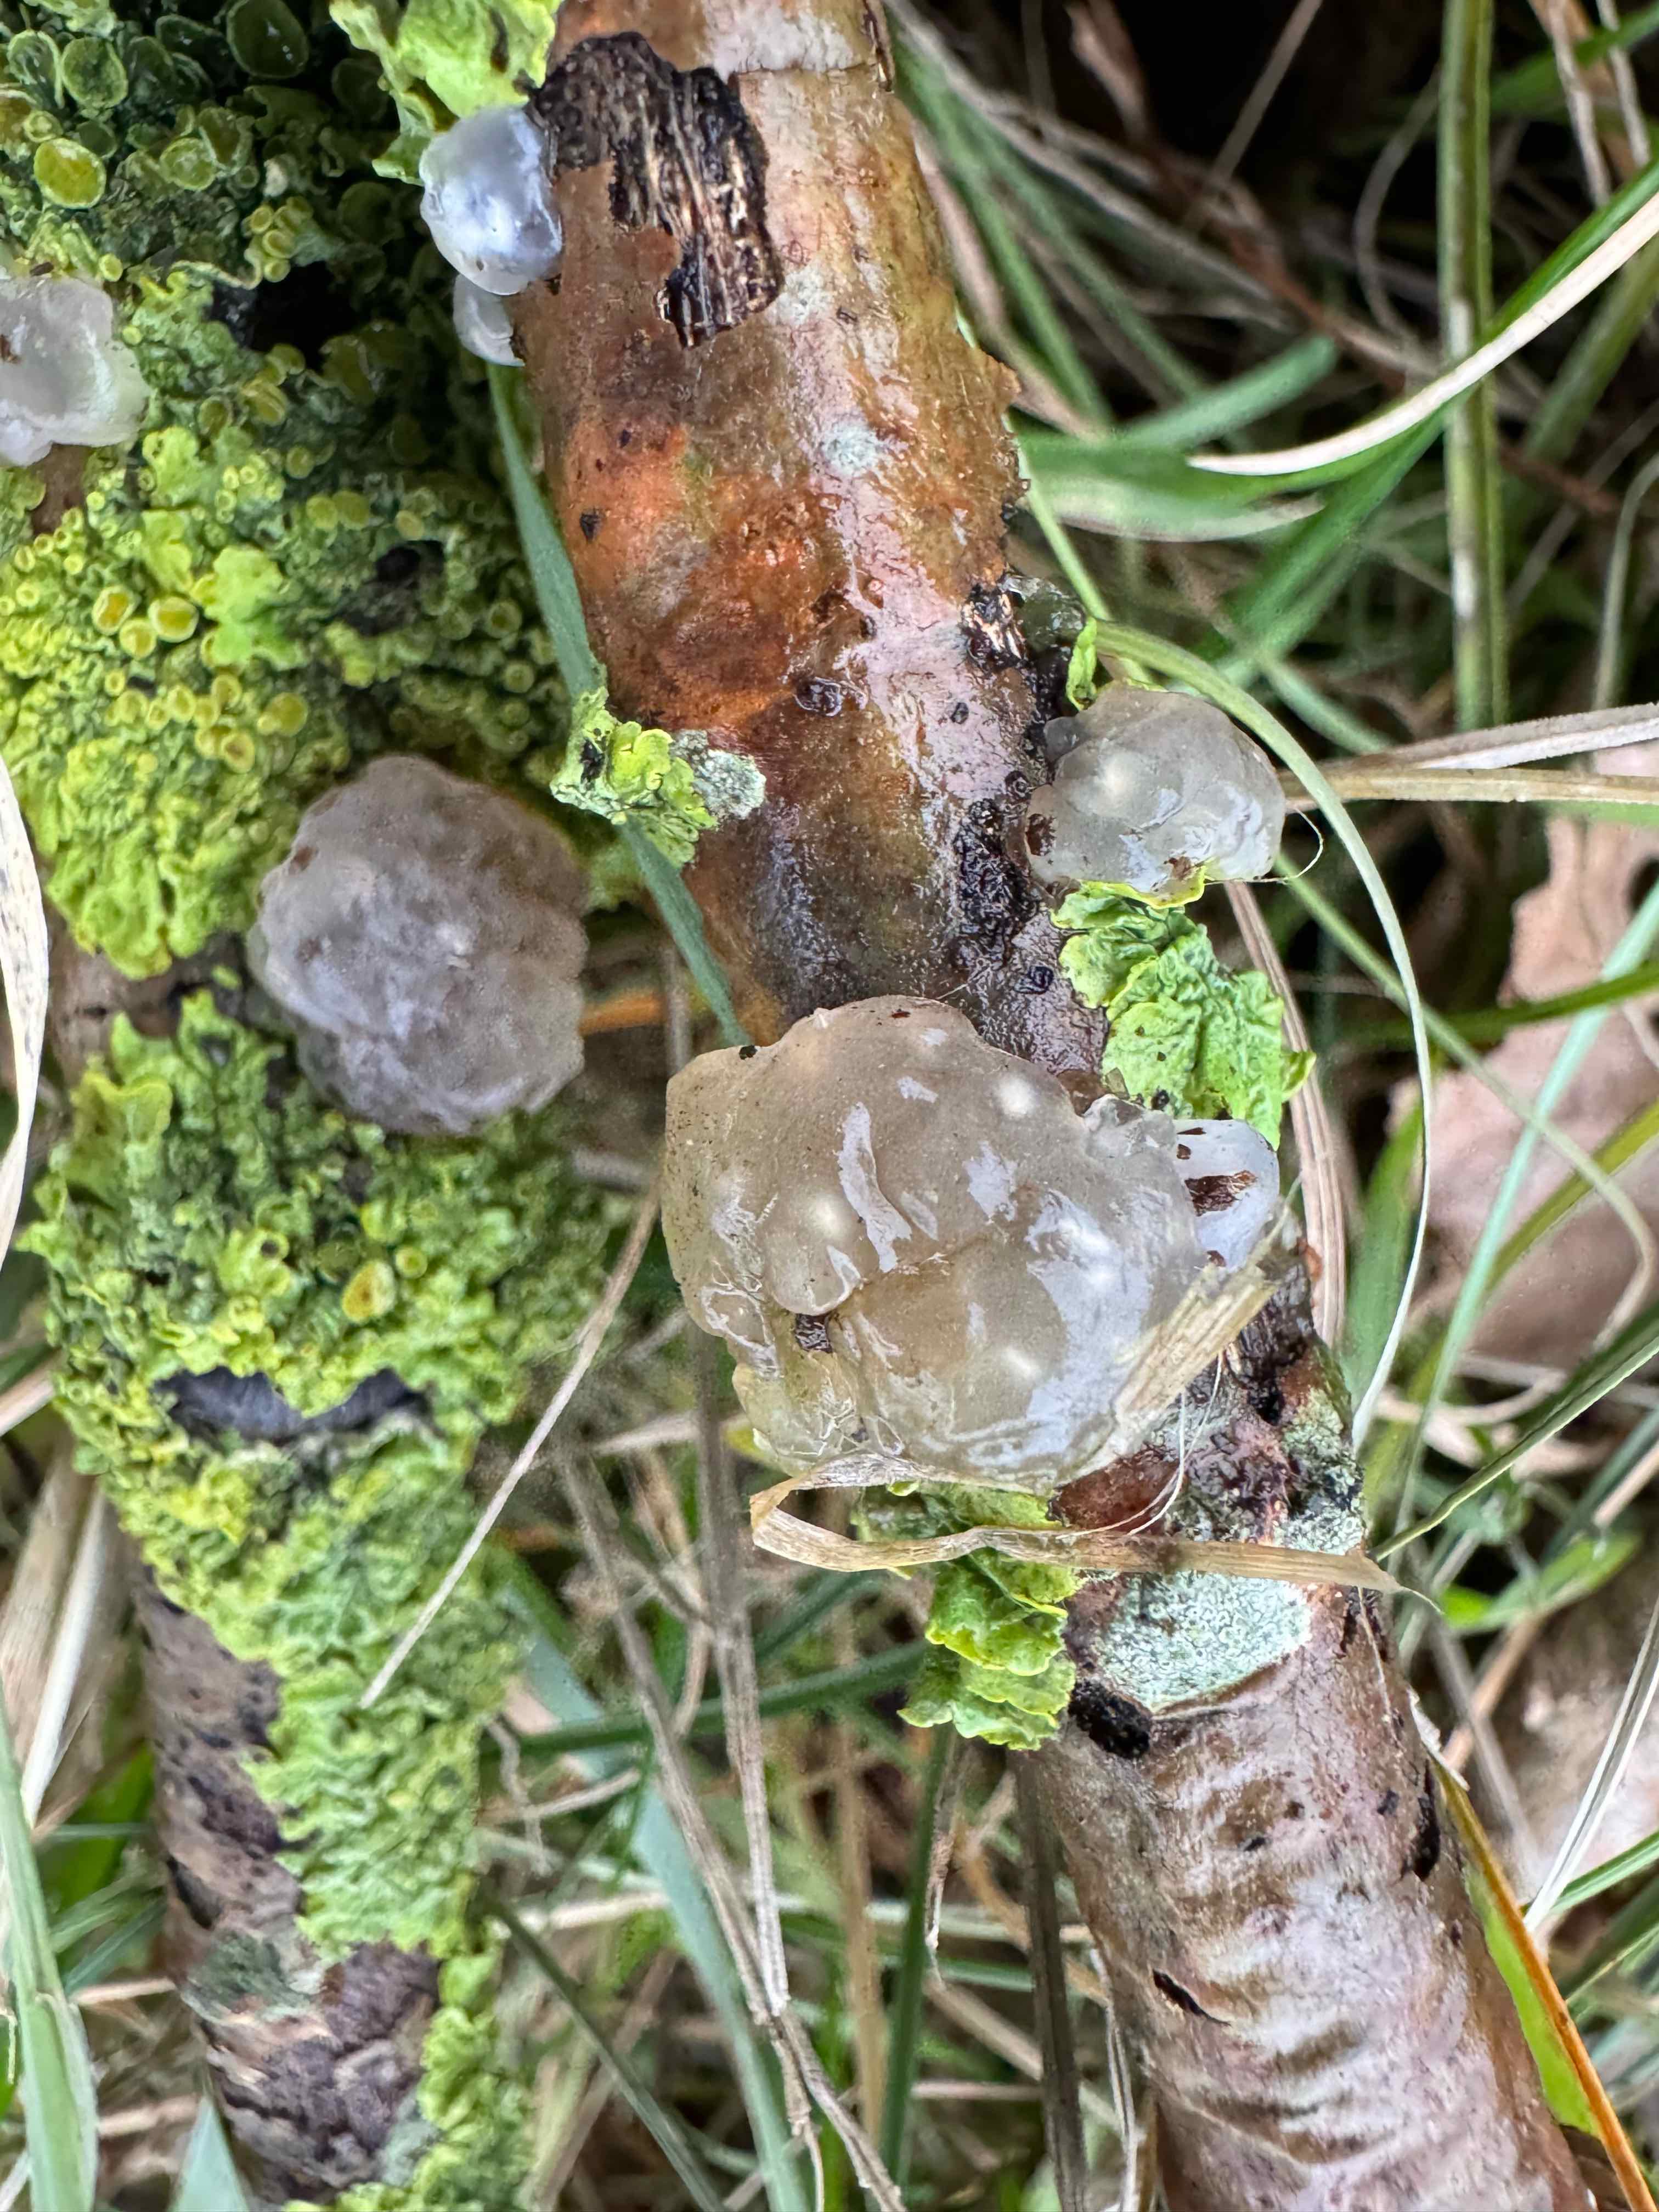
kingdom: Fungi
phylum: Basidiomycota
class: Agaricomycetes
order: Auriculariales
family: Hyaloriaceae
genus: Myxarium
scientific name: Myxarium nucleatum
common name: klar bævretop
